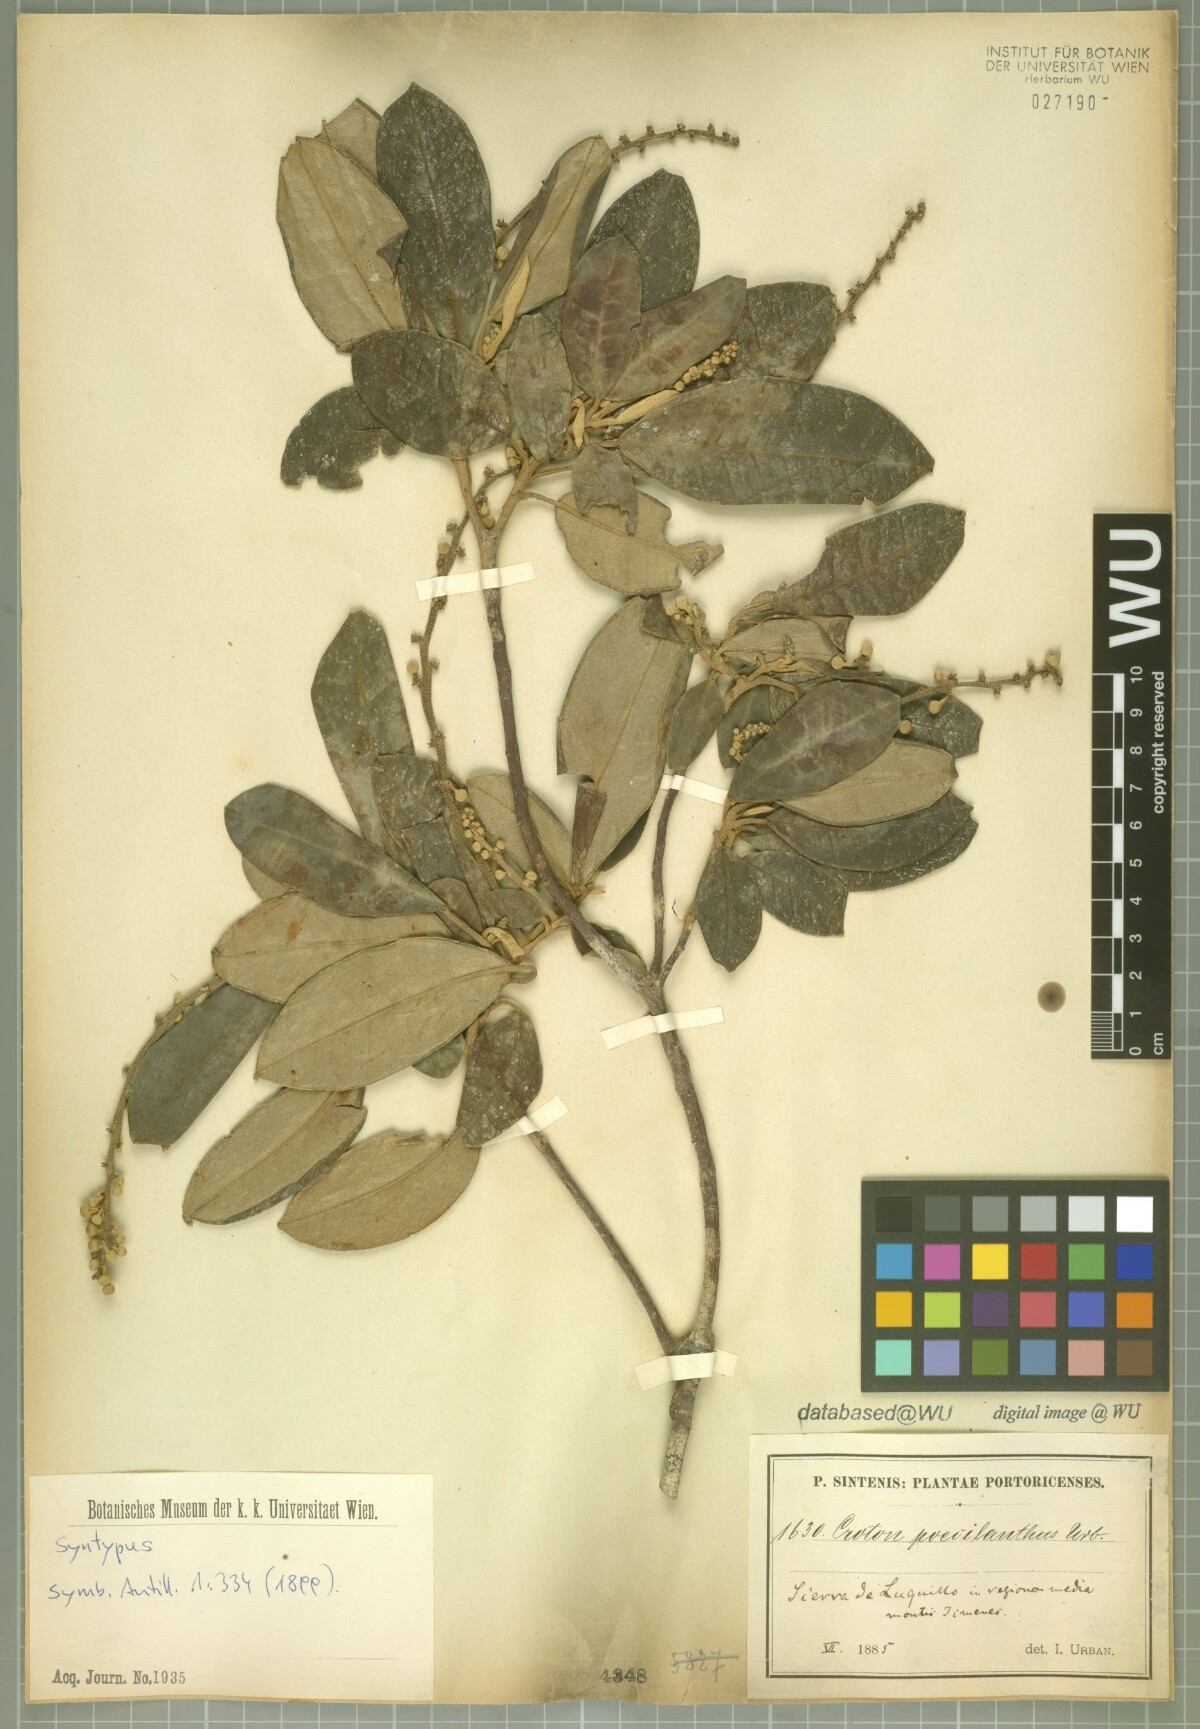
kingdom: Plantae
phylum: Tracheophyta
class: Magnoliopsida
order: Malpighiales
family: Euphorbiaceae
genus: Croton
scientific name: Croton poecilanthus
